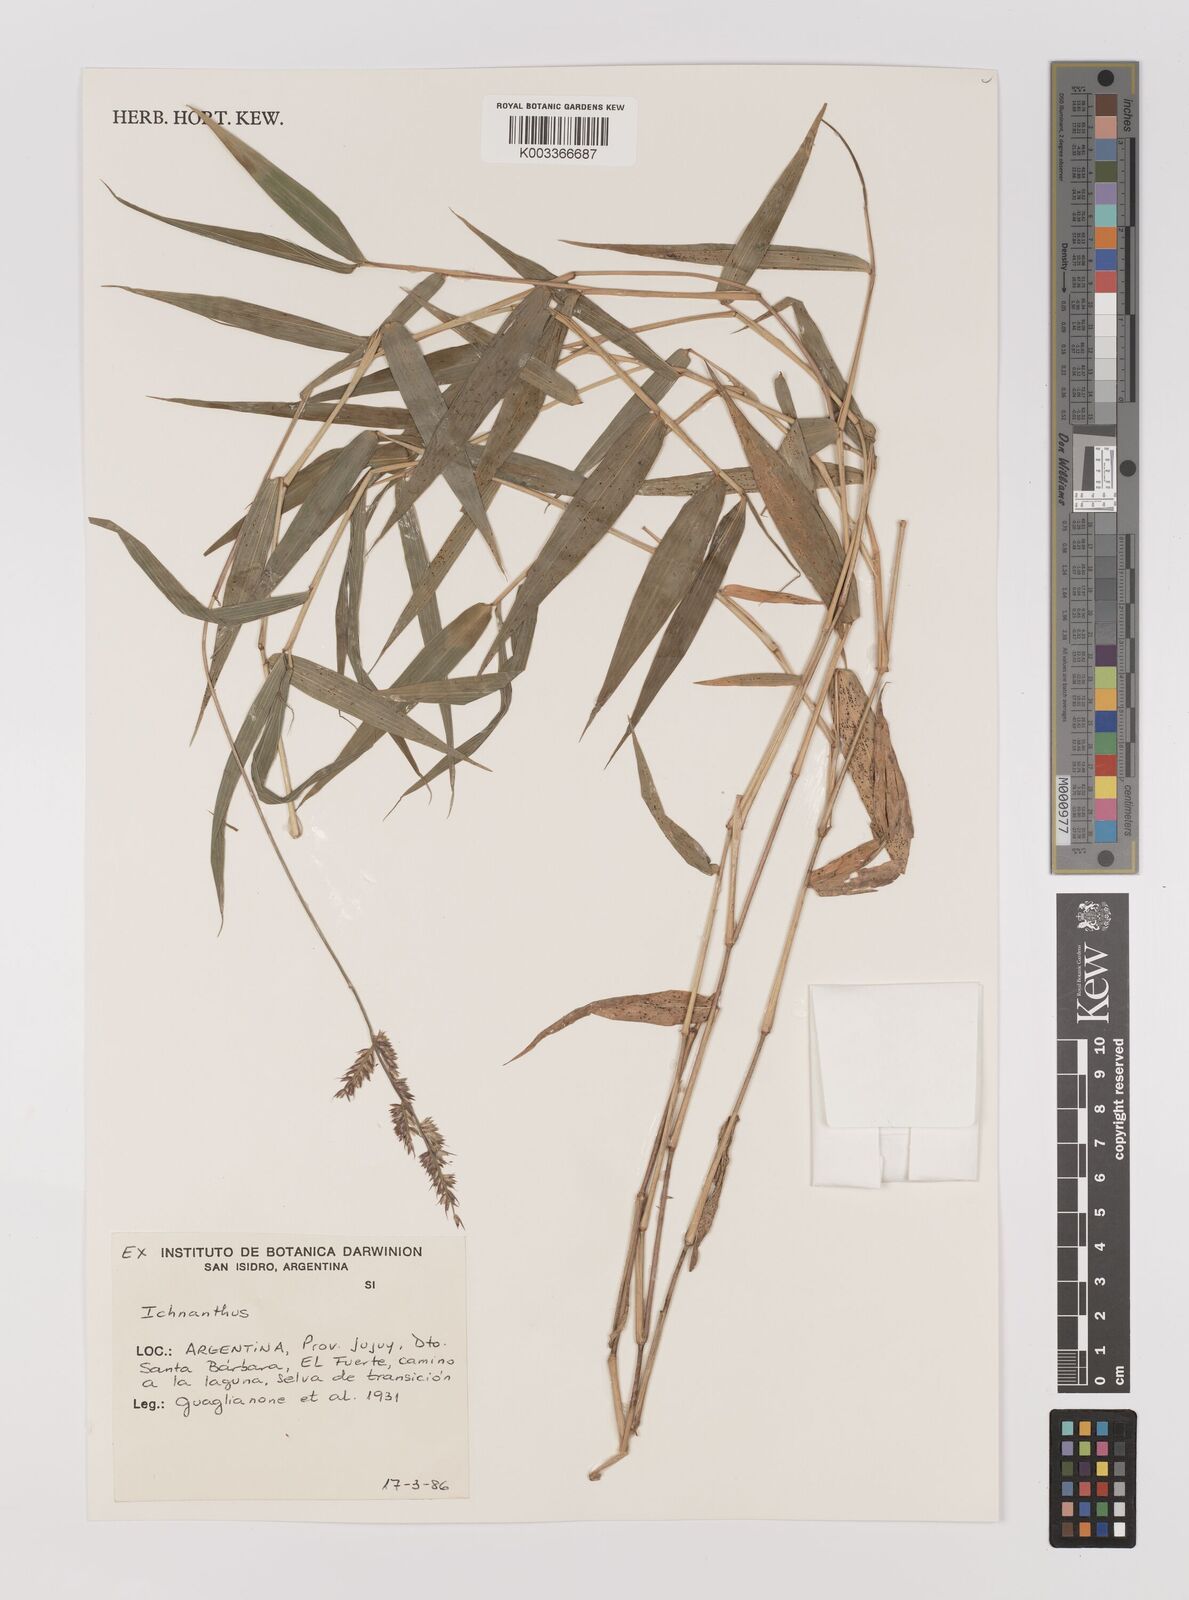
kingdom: Plantae
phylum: Tracheophyta
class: Liliopsida
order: Poales
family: Poaceae
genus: Oedochloa
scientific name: Oedochloa minarum
